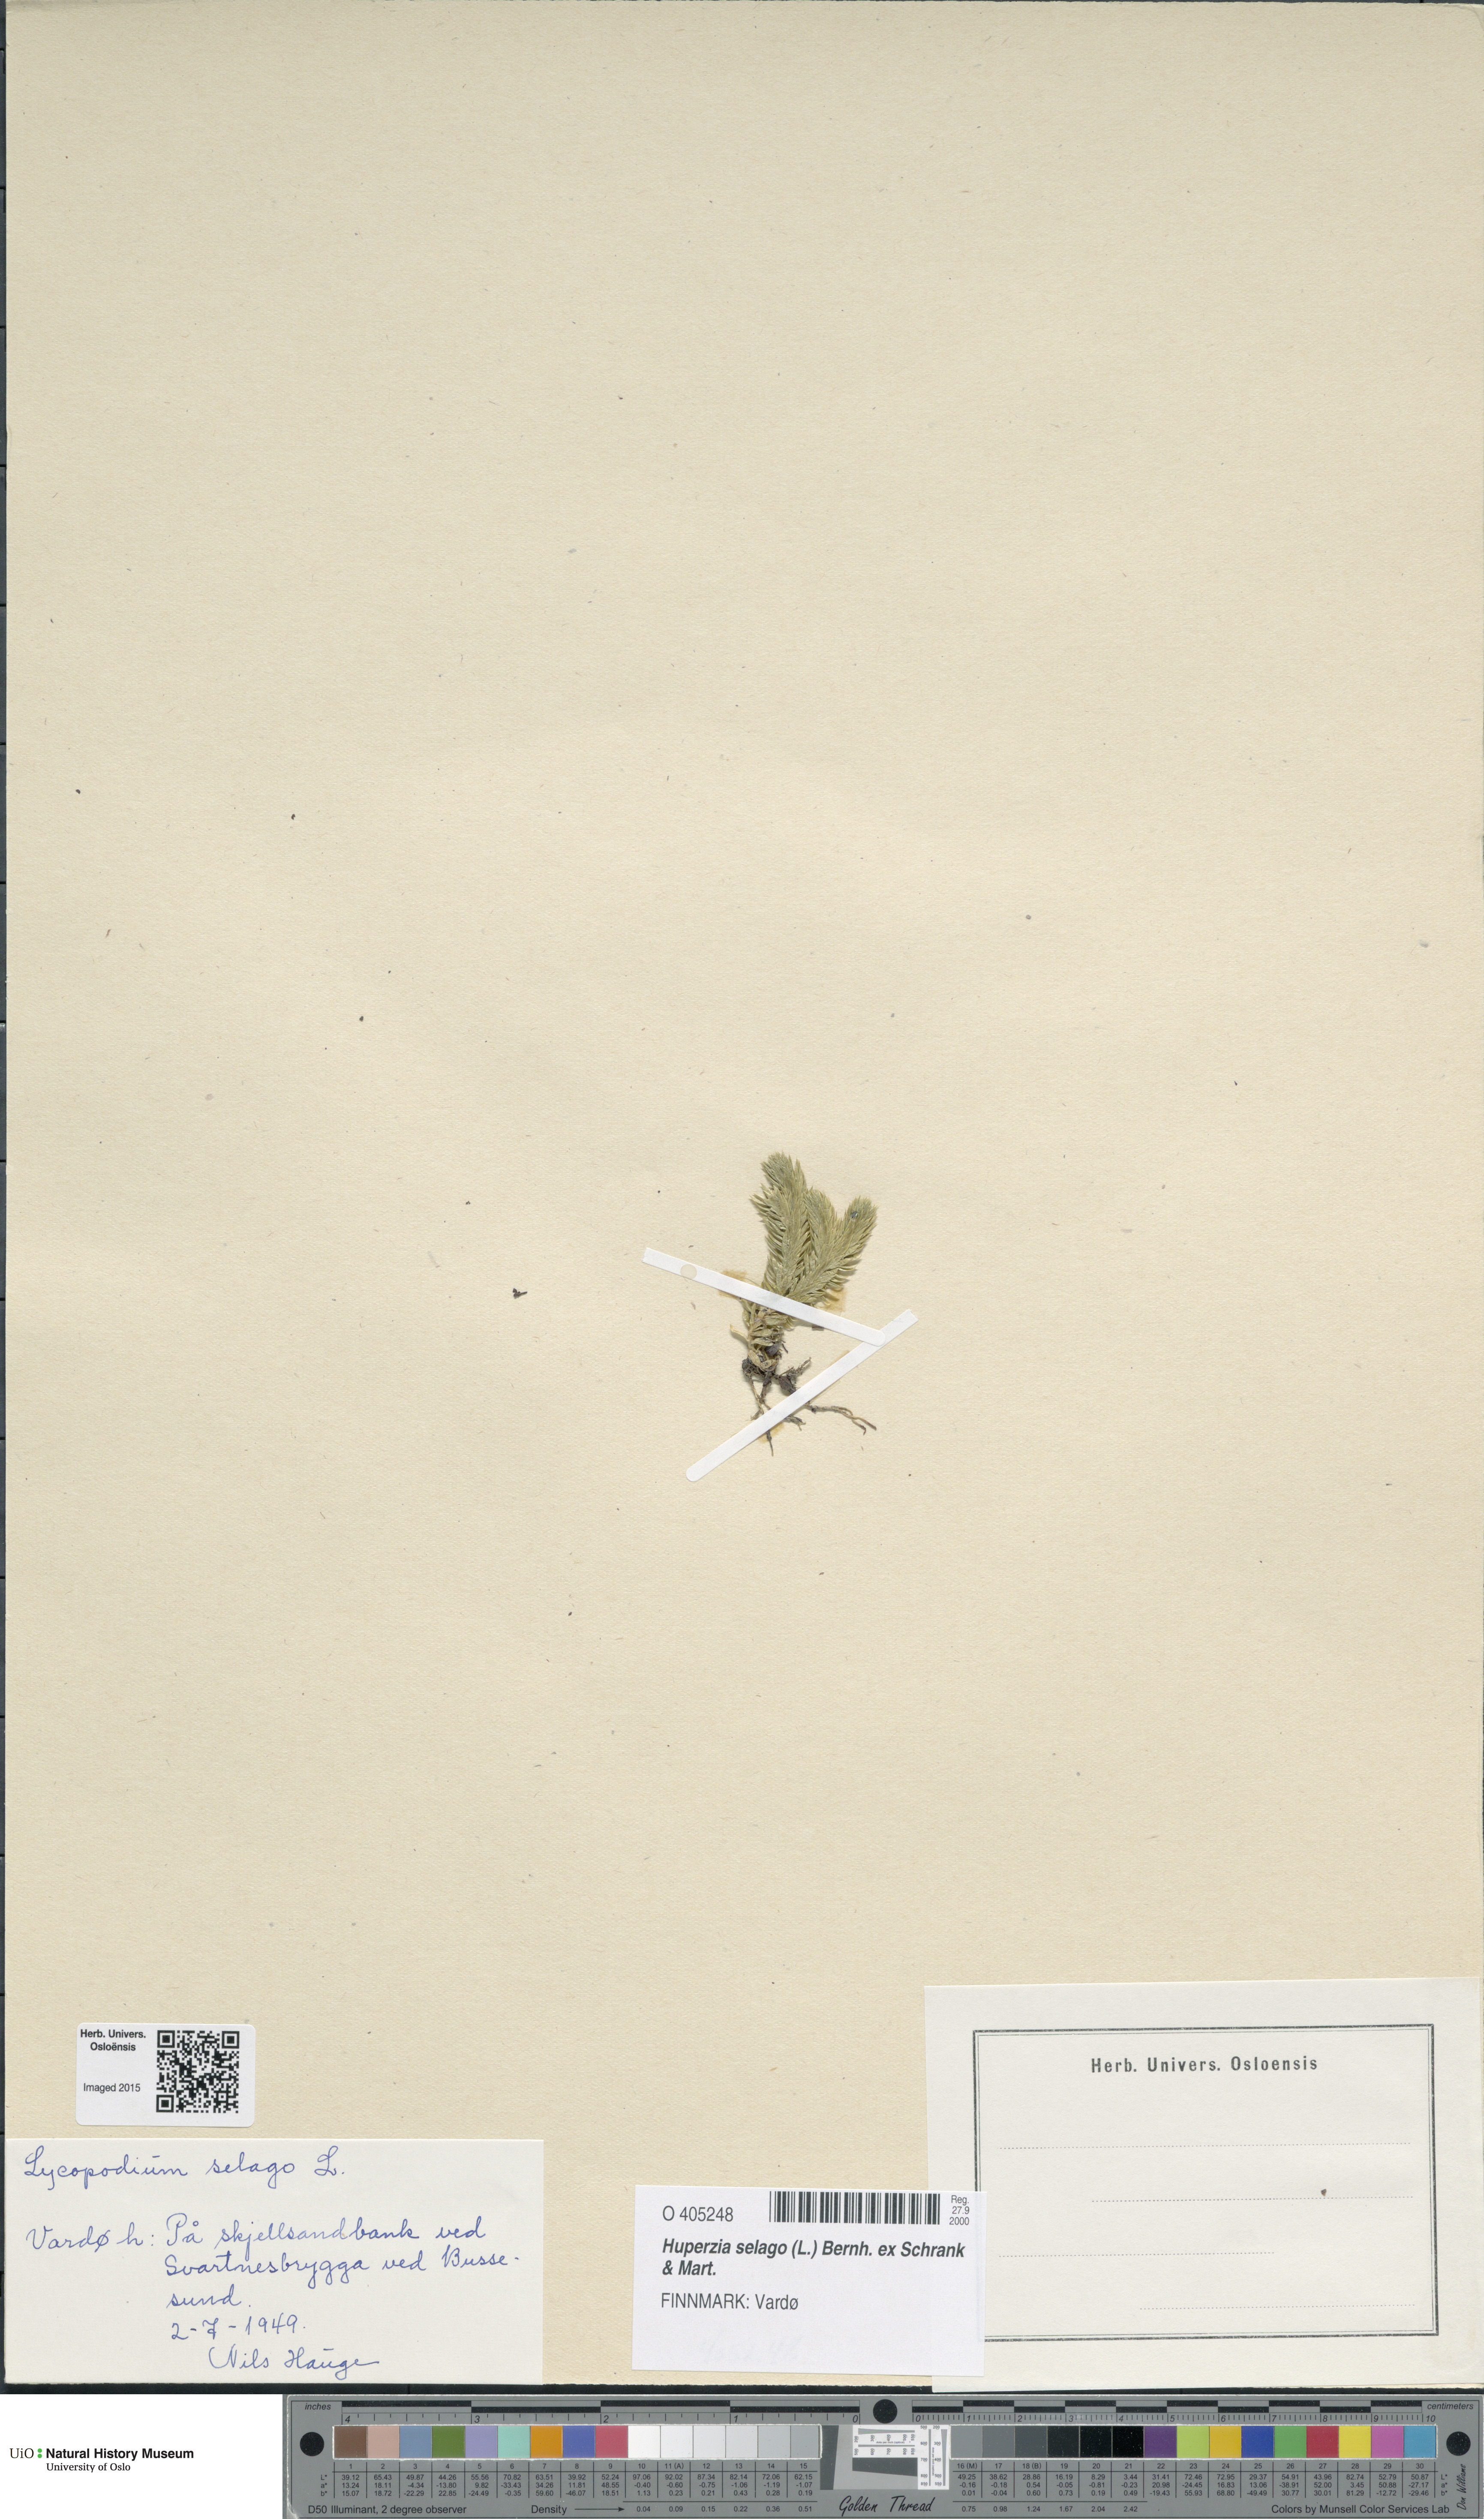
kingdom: Plantae
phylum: Tracheophyta
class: Lycopodiopsida
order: Lycopodiales
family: Lycopodiaceae
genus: Huperzia
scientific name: Huperzia selago
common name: Northern firmoss
